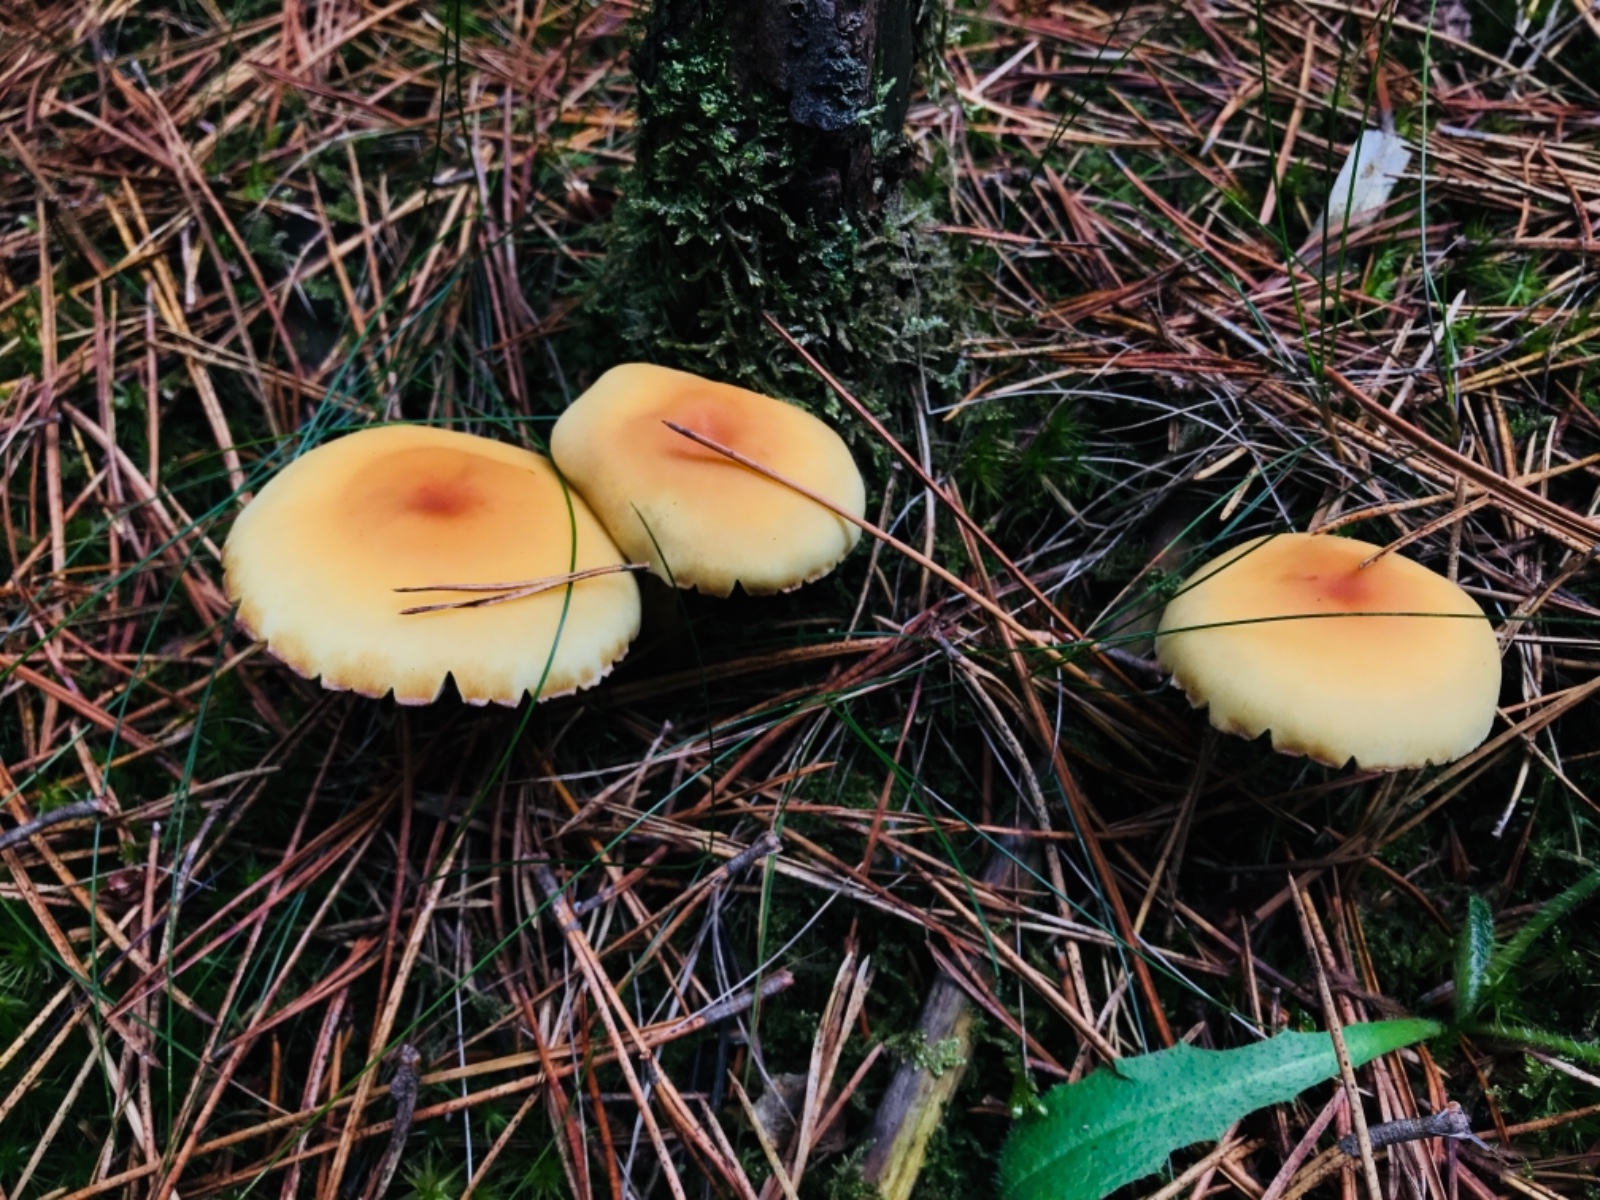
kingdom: Fungi
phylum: Basidiomycota
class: Agaricomycetes
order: Agaricales
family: Strophariaceae
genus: Hypholoma
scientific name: Hypholoma fasciculare
